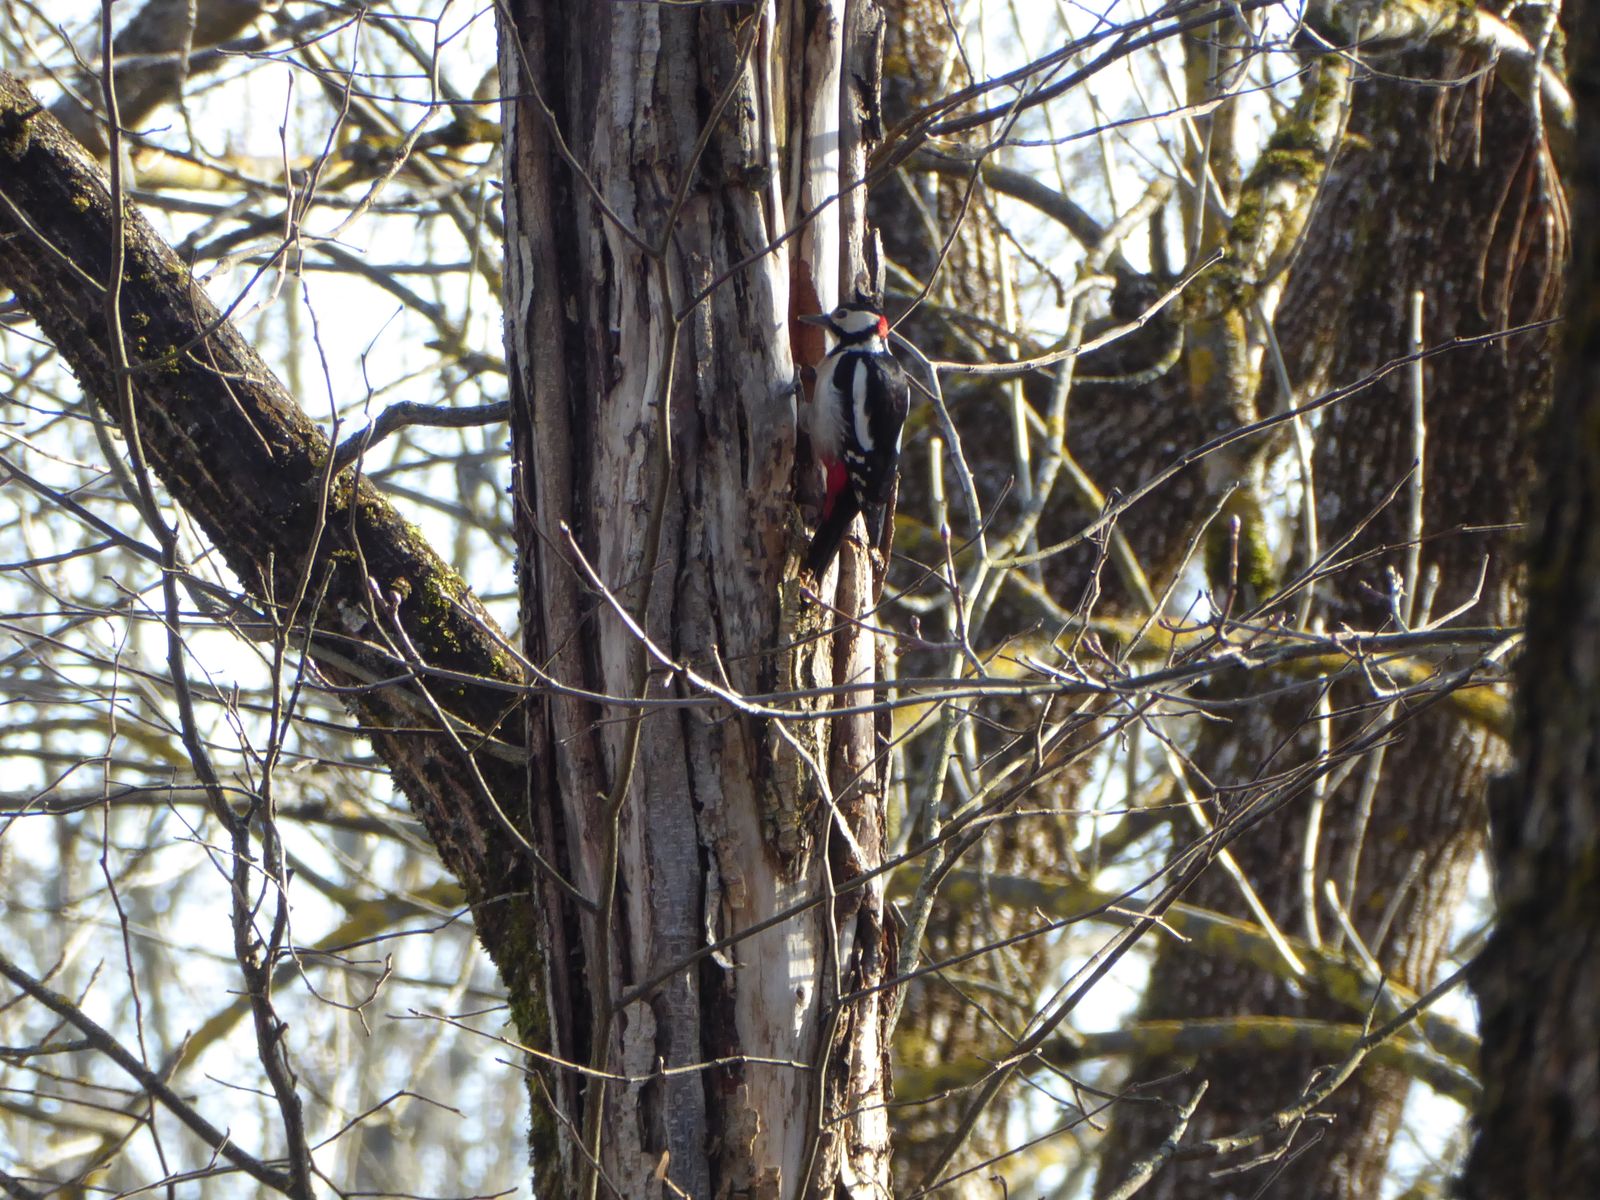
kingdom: Animalia
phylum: Chordata
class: Aves
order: Piciformes
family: Picidae
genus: Dendrocopos
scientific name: Dendrocopos major
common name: Great spotted woodpecker
